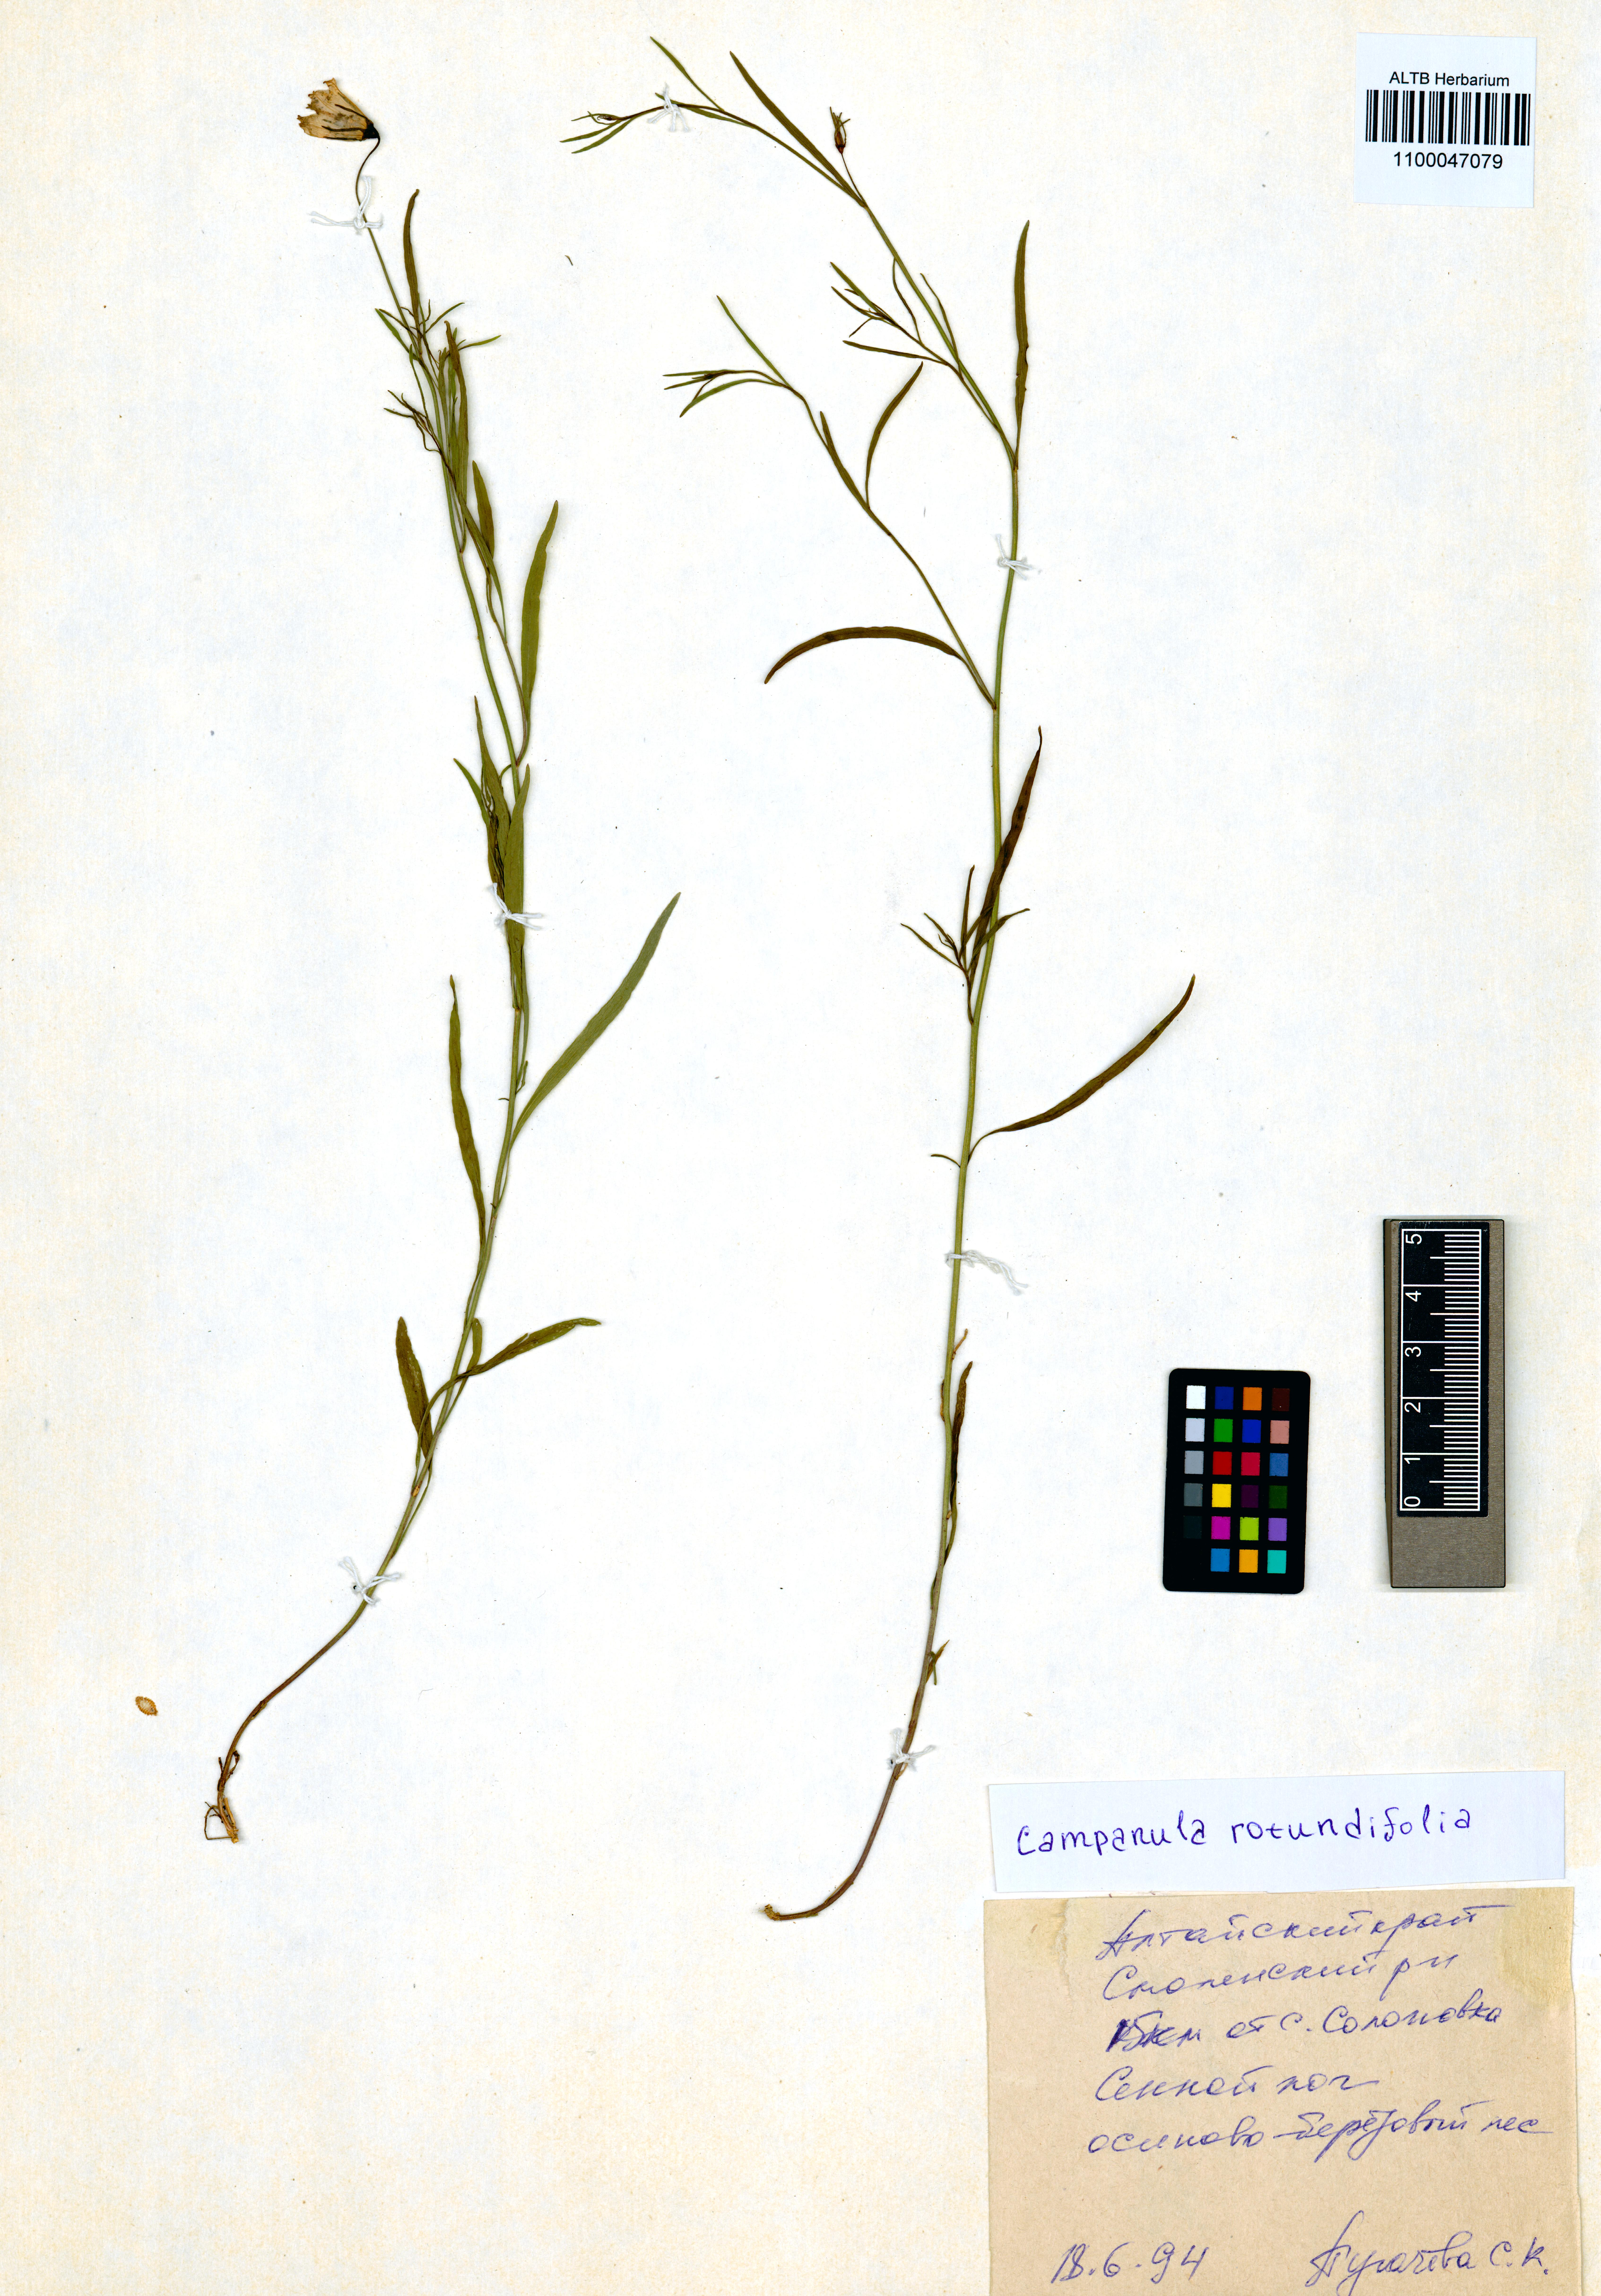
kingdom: Plantae
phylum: Tracheophyta
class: Magnoliopsida
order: Asterales
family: Campanulaceae
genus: Campanula
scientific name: Campanula rotundifolia
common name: Harebell
